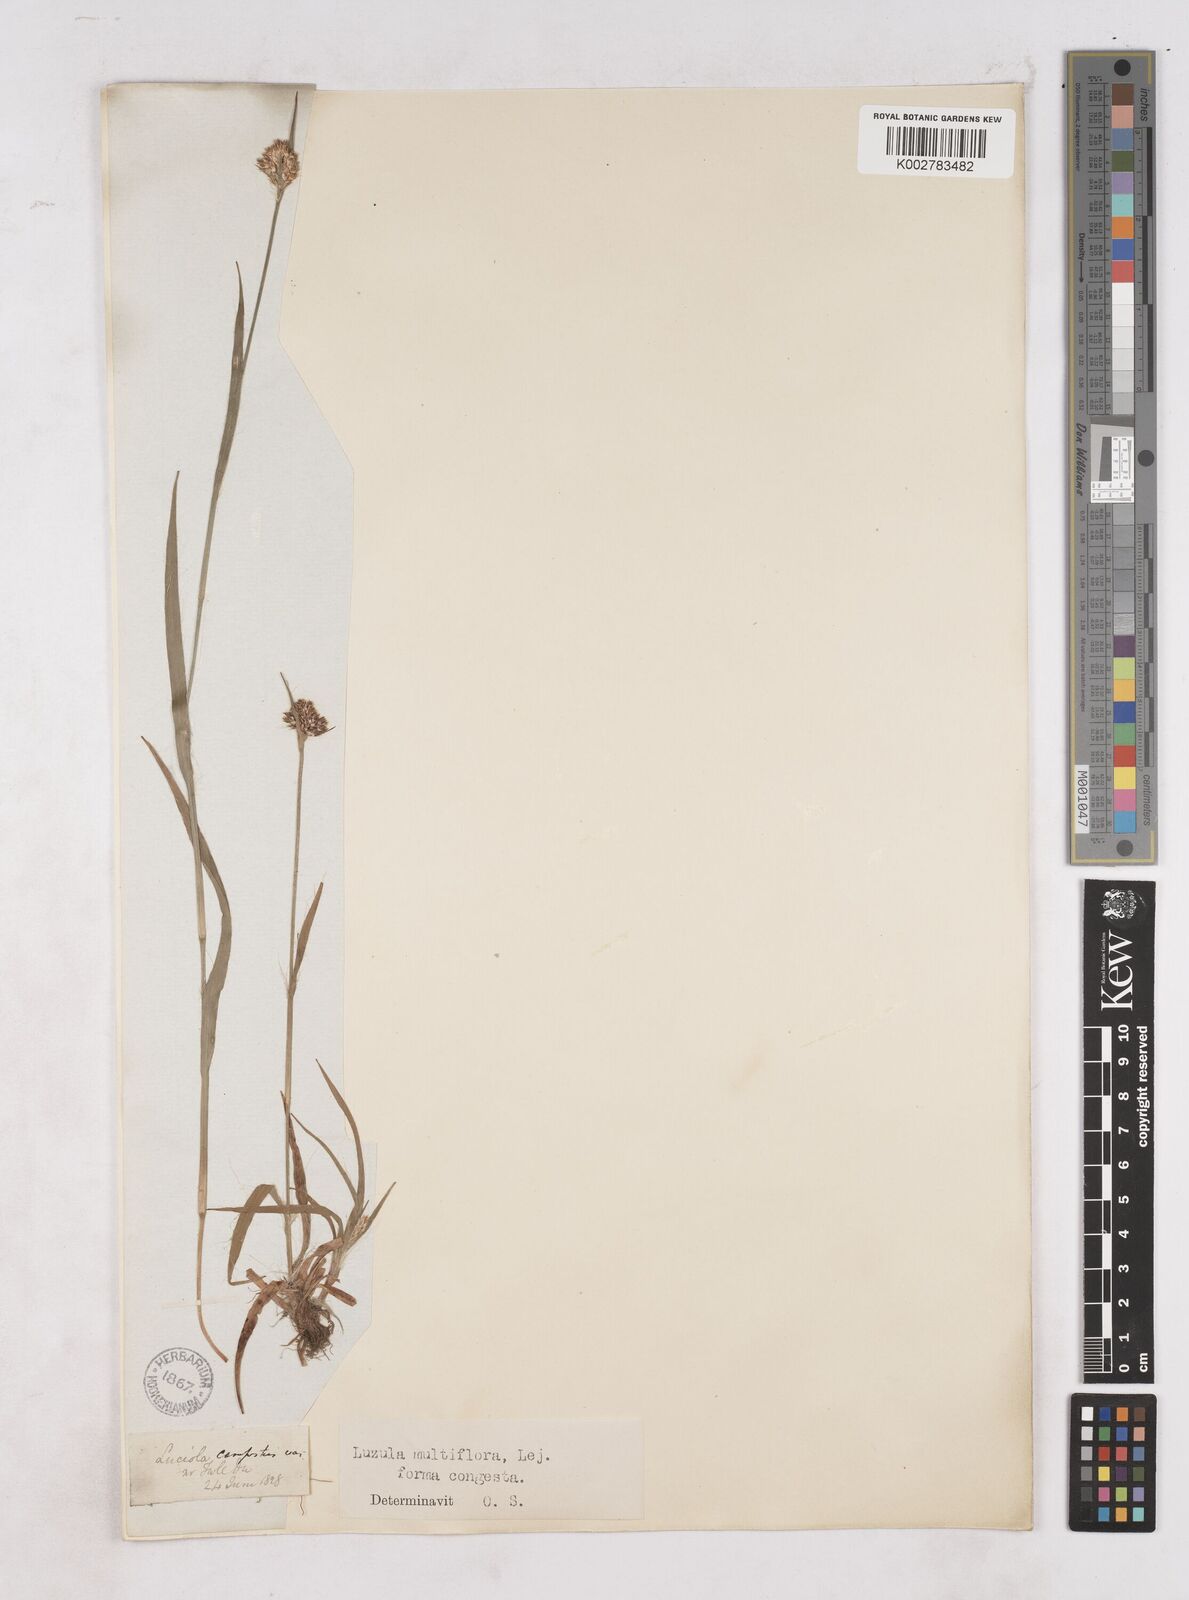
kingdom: Plantae
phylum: Tracheophyta
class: Liliopsida
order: Poales
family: Juncaceae
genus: Luzula
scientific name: Luzula campestris
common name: Field wood-rush
